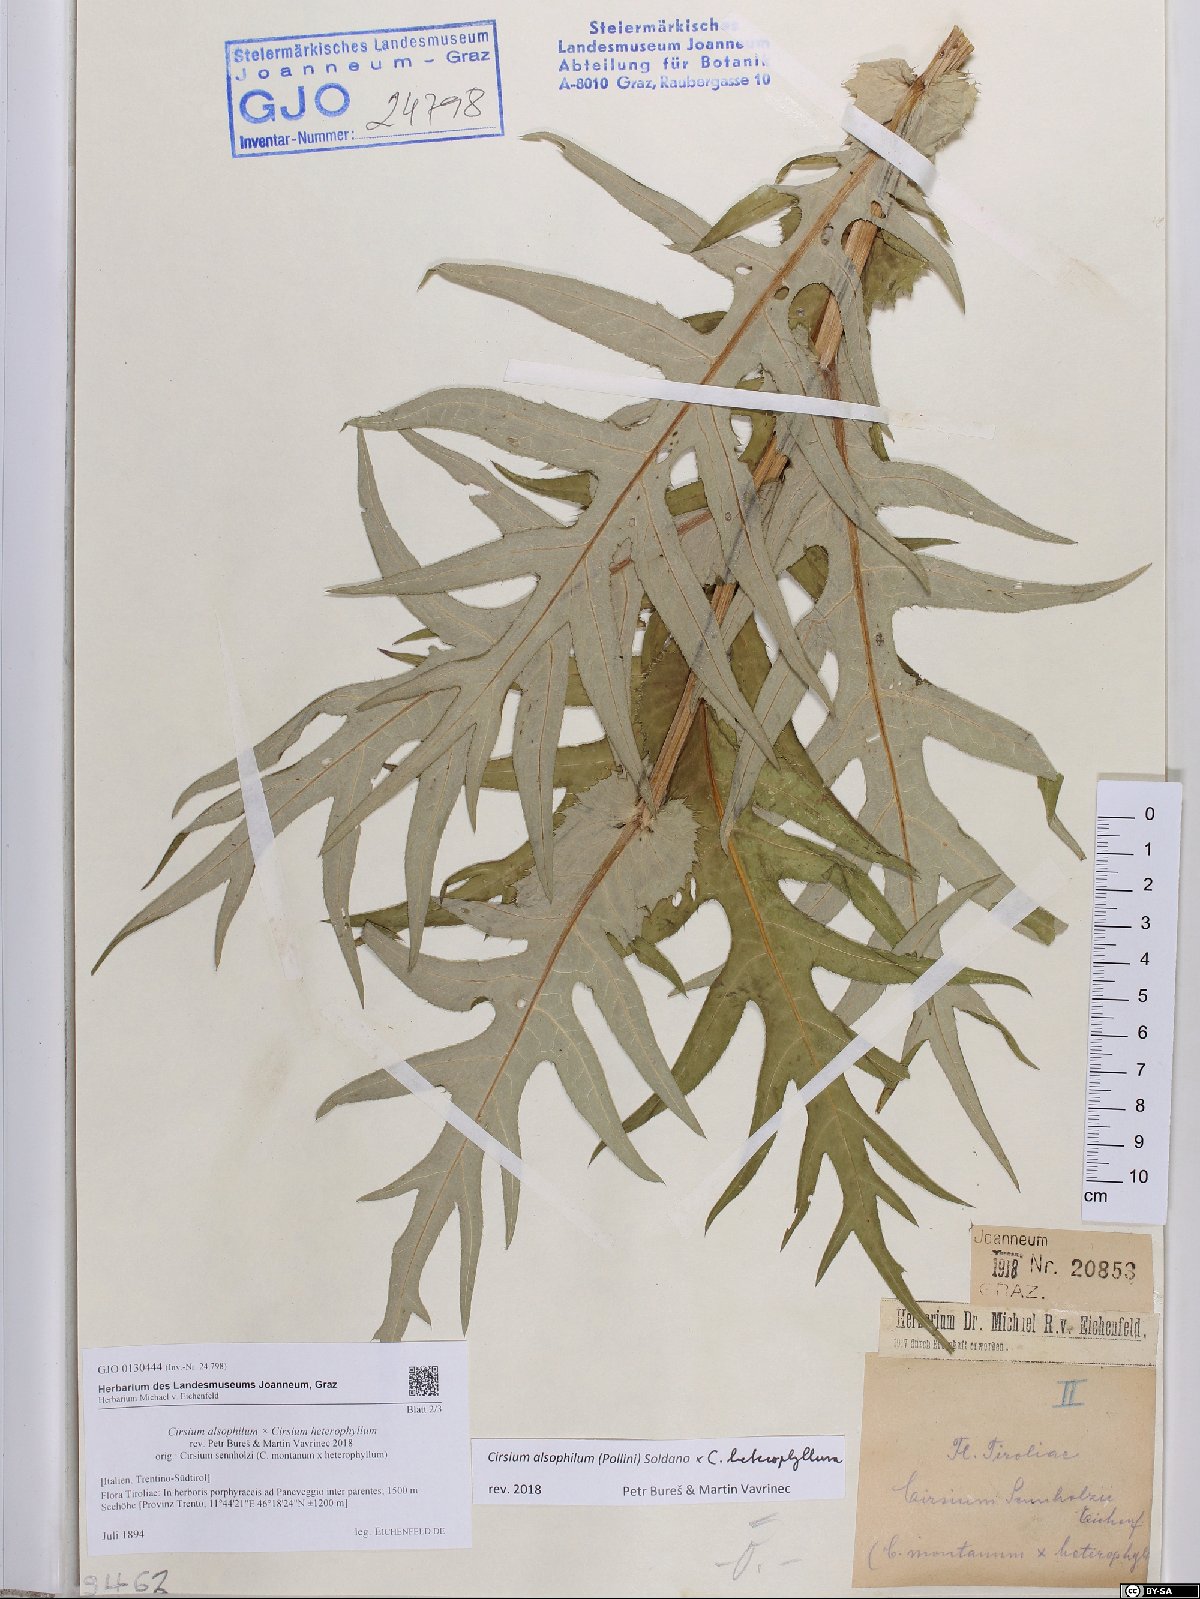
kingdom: Plantae
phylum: Tracheophyta
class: Magnoliopsida
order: Asterales
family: Asteraceae
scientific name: Asteraceae
